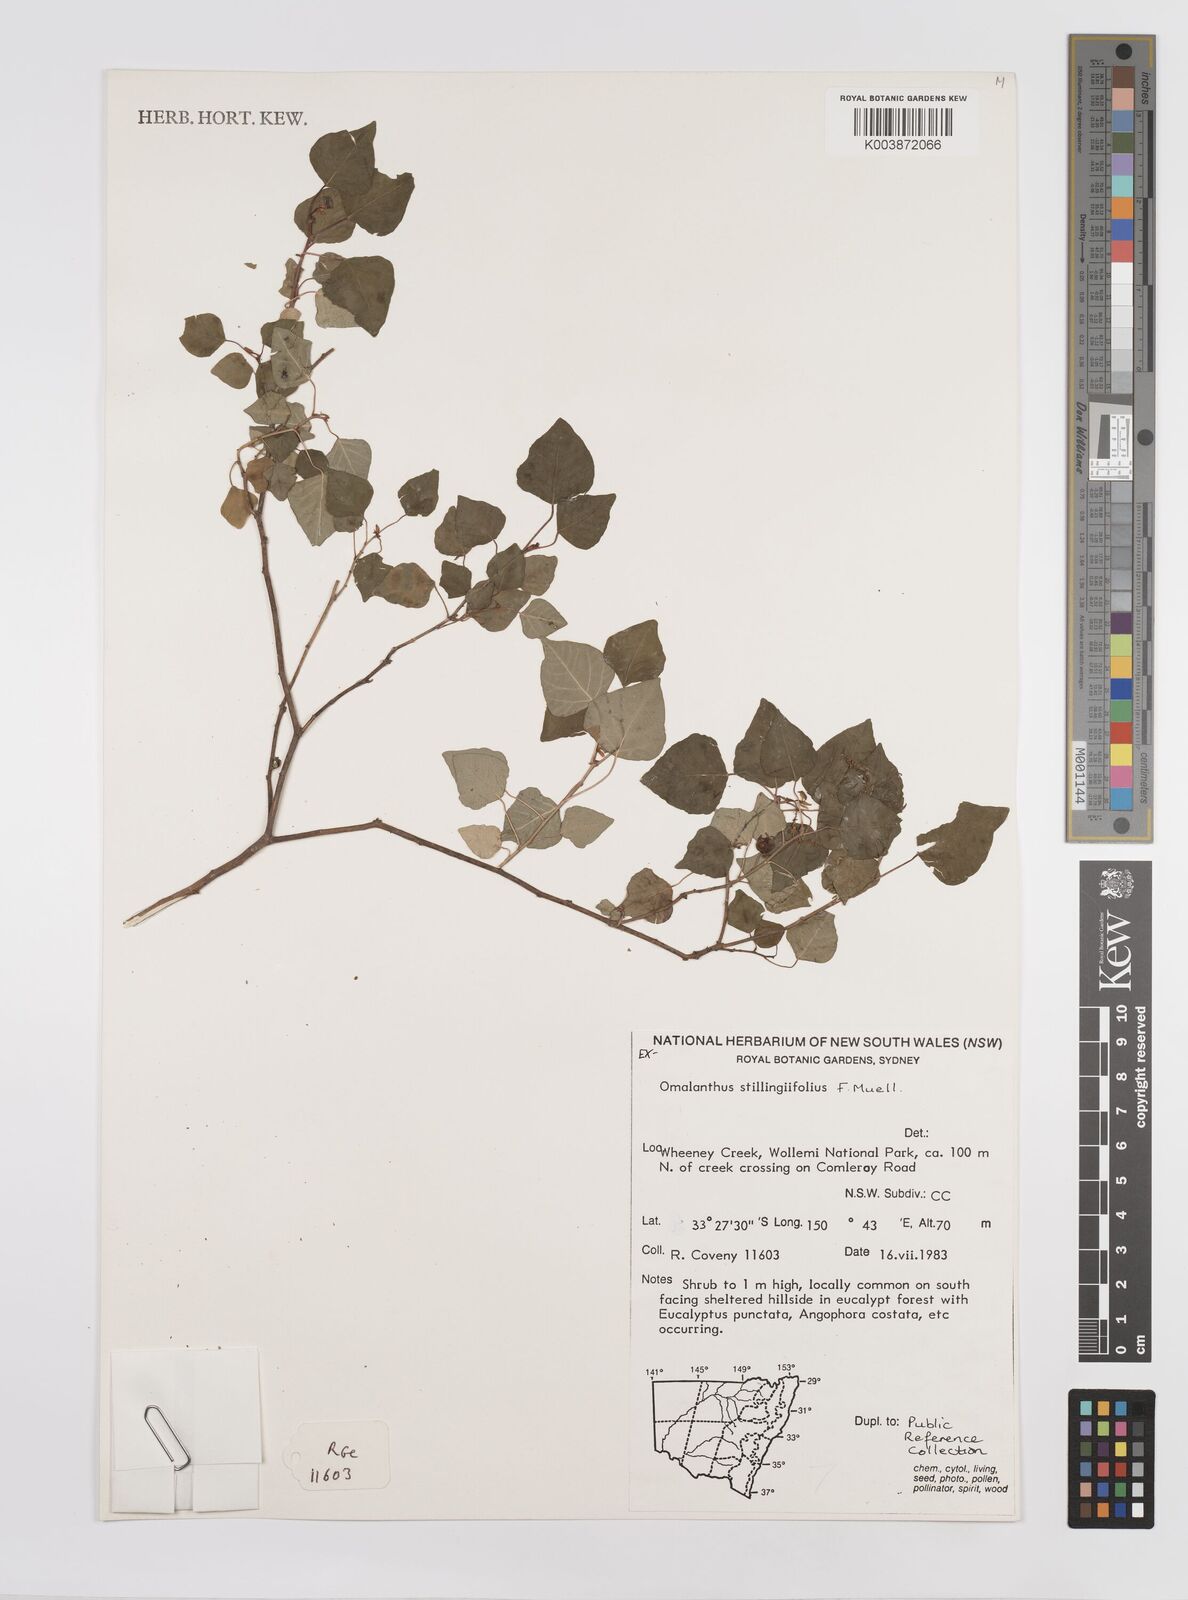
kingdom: Plantae
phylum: Tracheophyta
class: Magnoliopsida
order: Malpighiales
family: Euphorbiaceae
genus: Homalanthus
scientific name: Homalanthus stillingifolius
